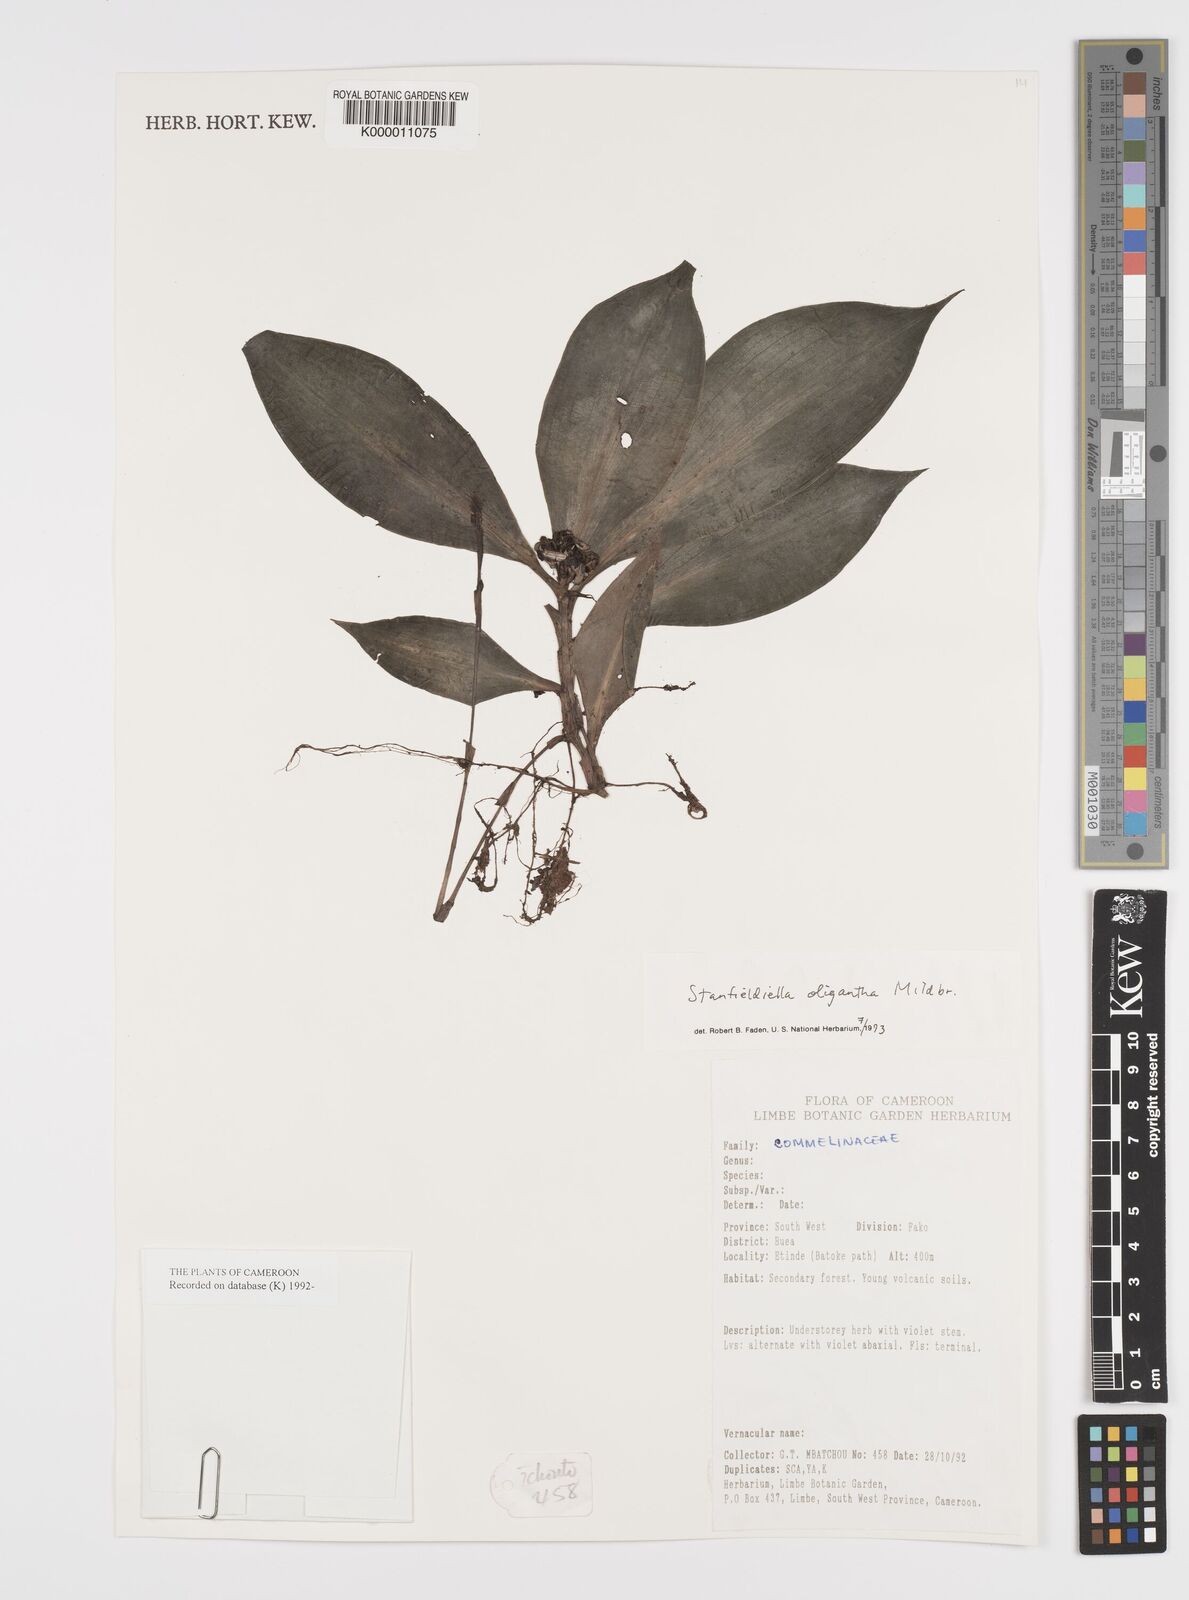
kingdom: Plantae
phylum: Tracheophyta
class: Liliopsida
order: Commelinales
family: Commelinaceae
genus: Stanfieldiella
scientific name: Stanfieldiella oligantha
